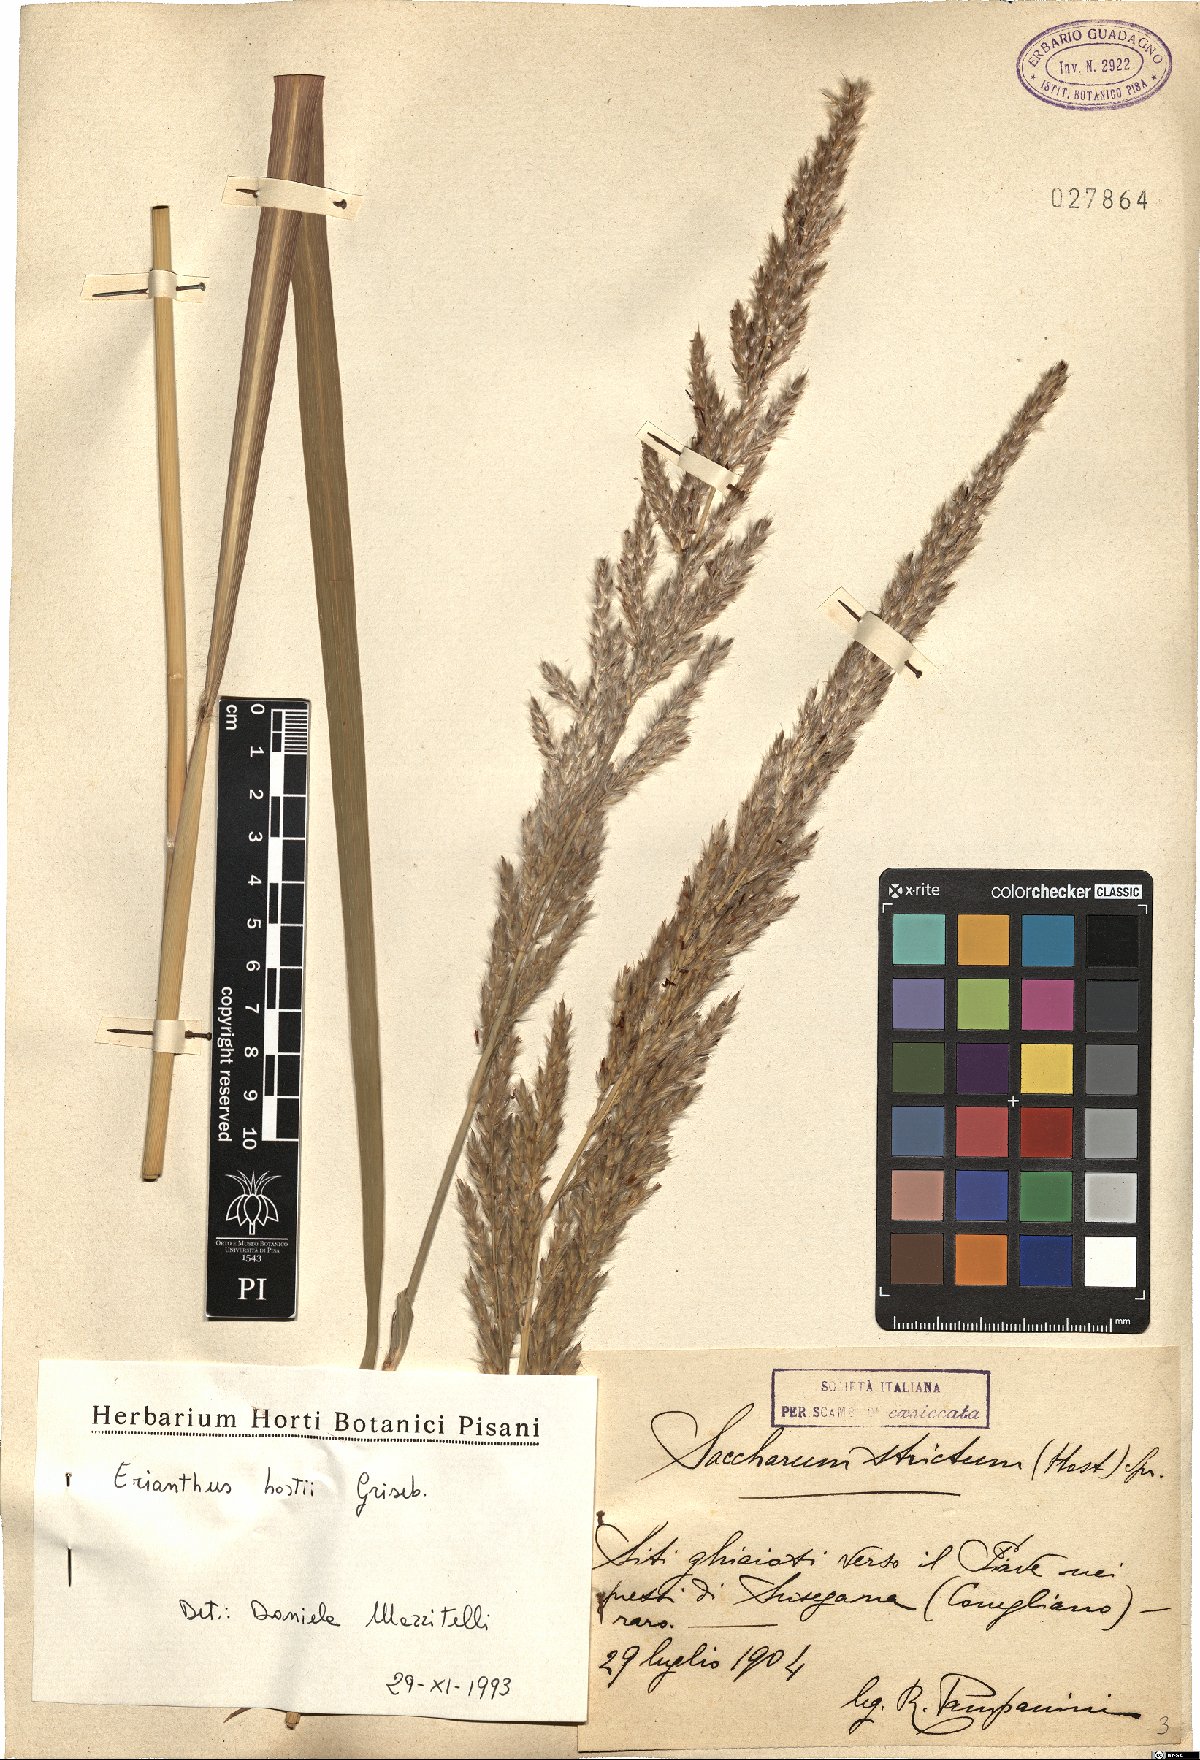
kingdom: Plantae
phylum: Tracheophyta
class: Liliopsida
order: Poales
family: Poaceae
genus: Tripidium
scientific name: Tripidium strictum
